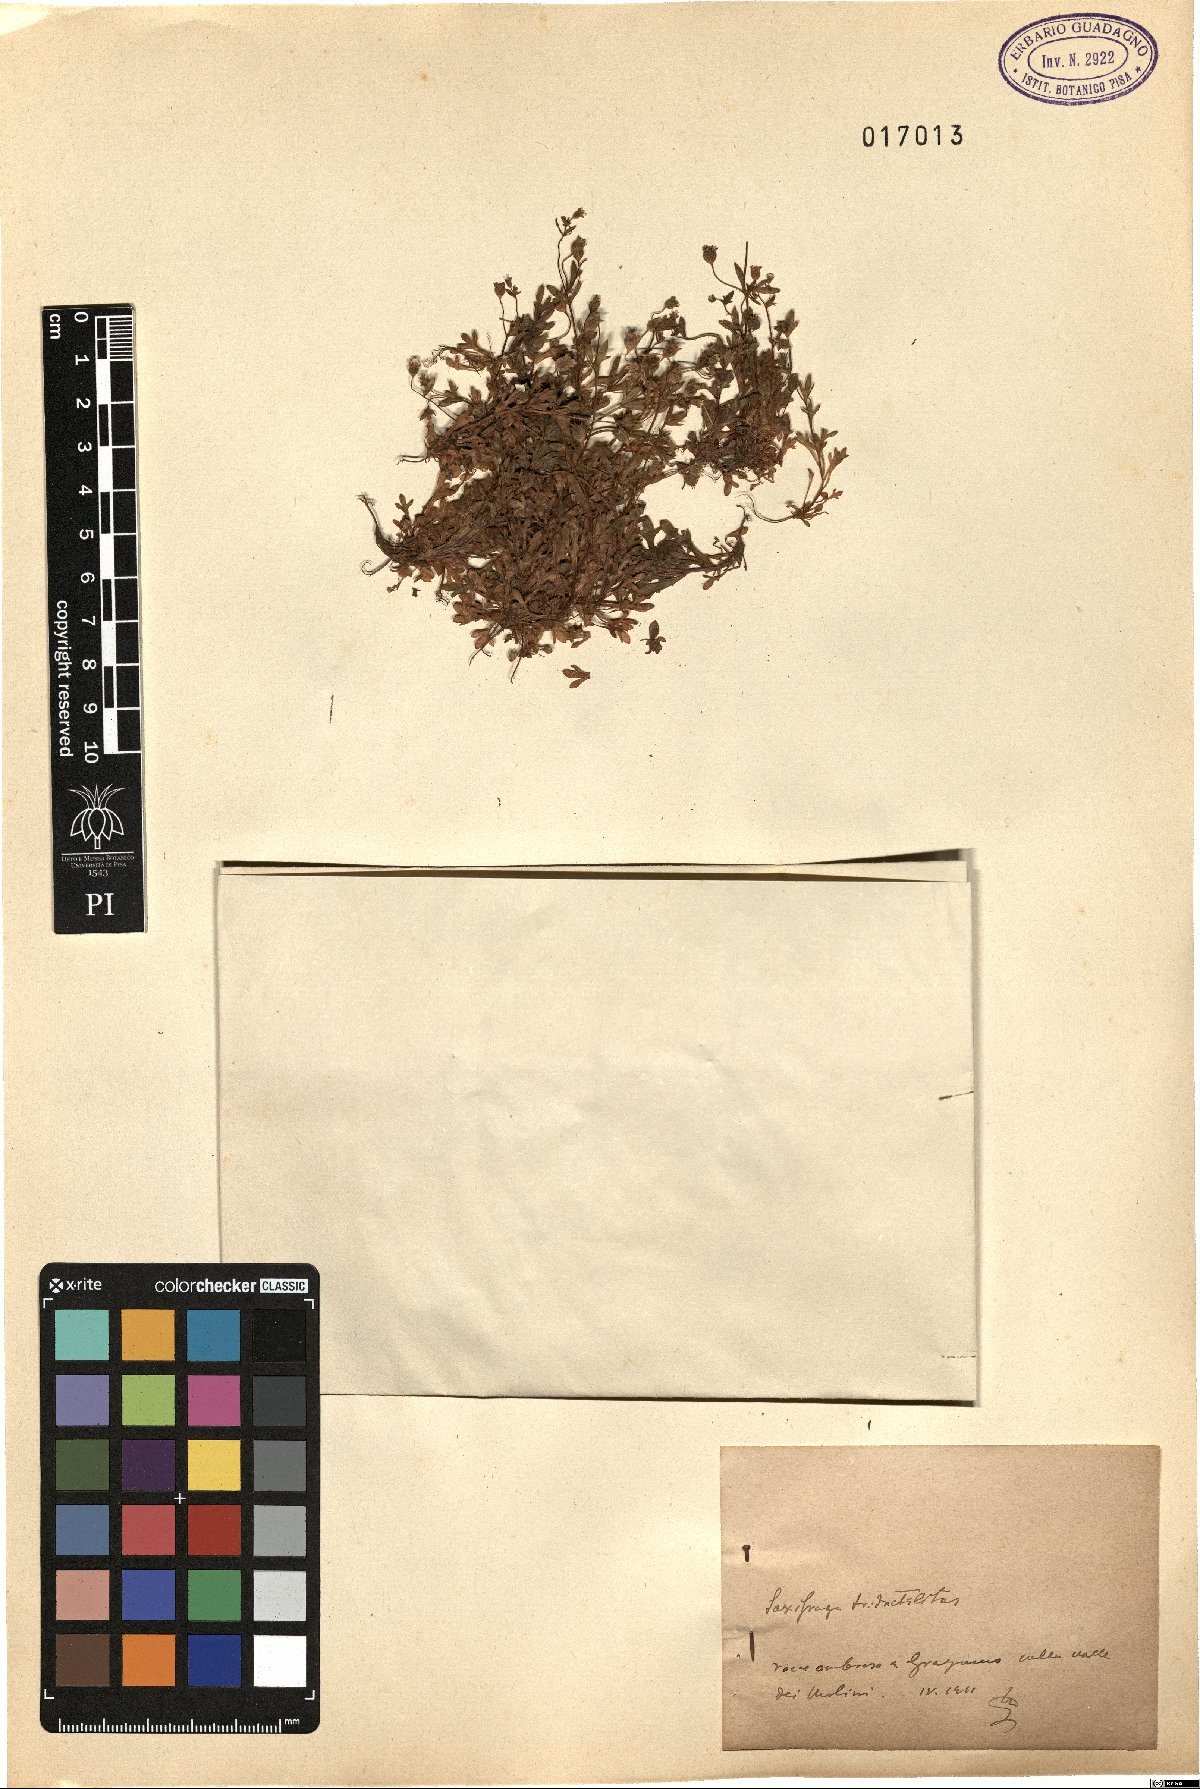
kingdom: Plantae
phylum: Tracheophyta
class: Magnoliopsida
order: Saxifragales
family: Saxifragaceae
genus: Saxifraga
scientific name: Saxifraga tridactylites
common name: Rue-leaved saxifrage
